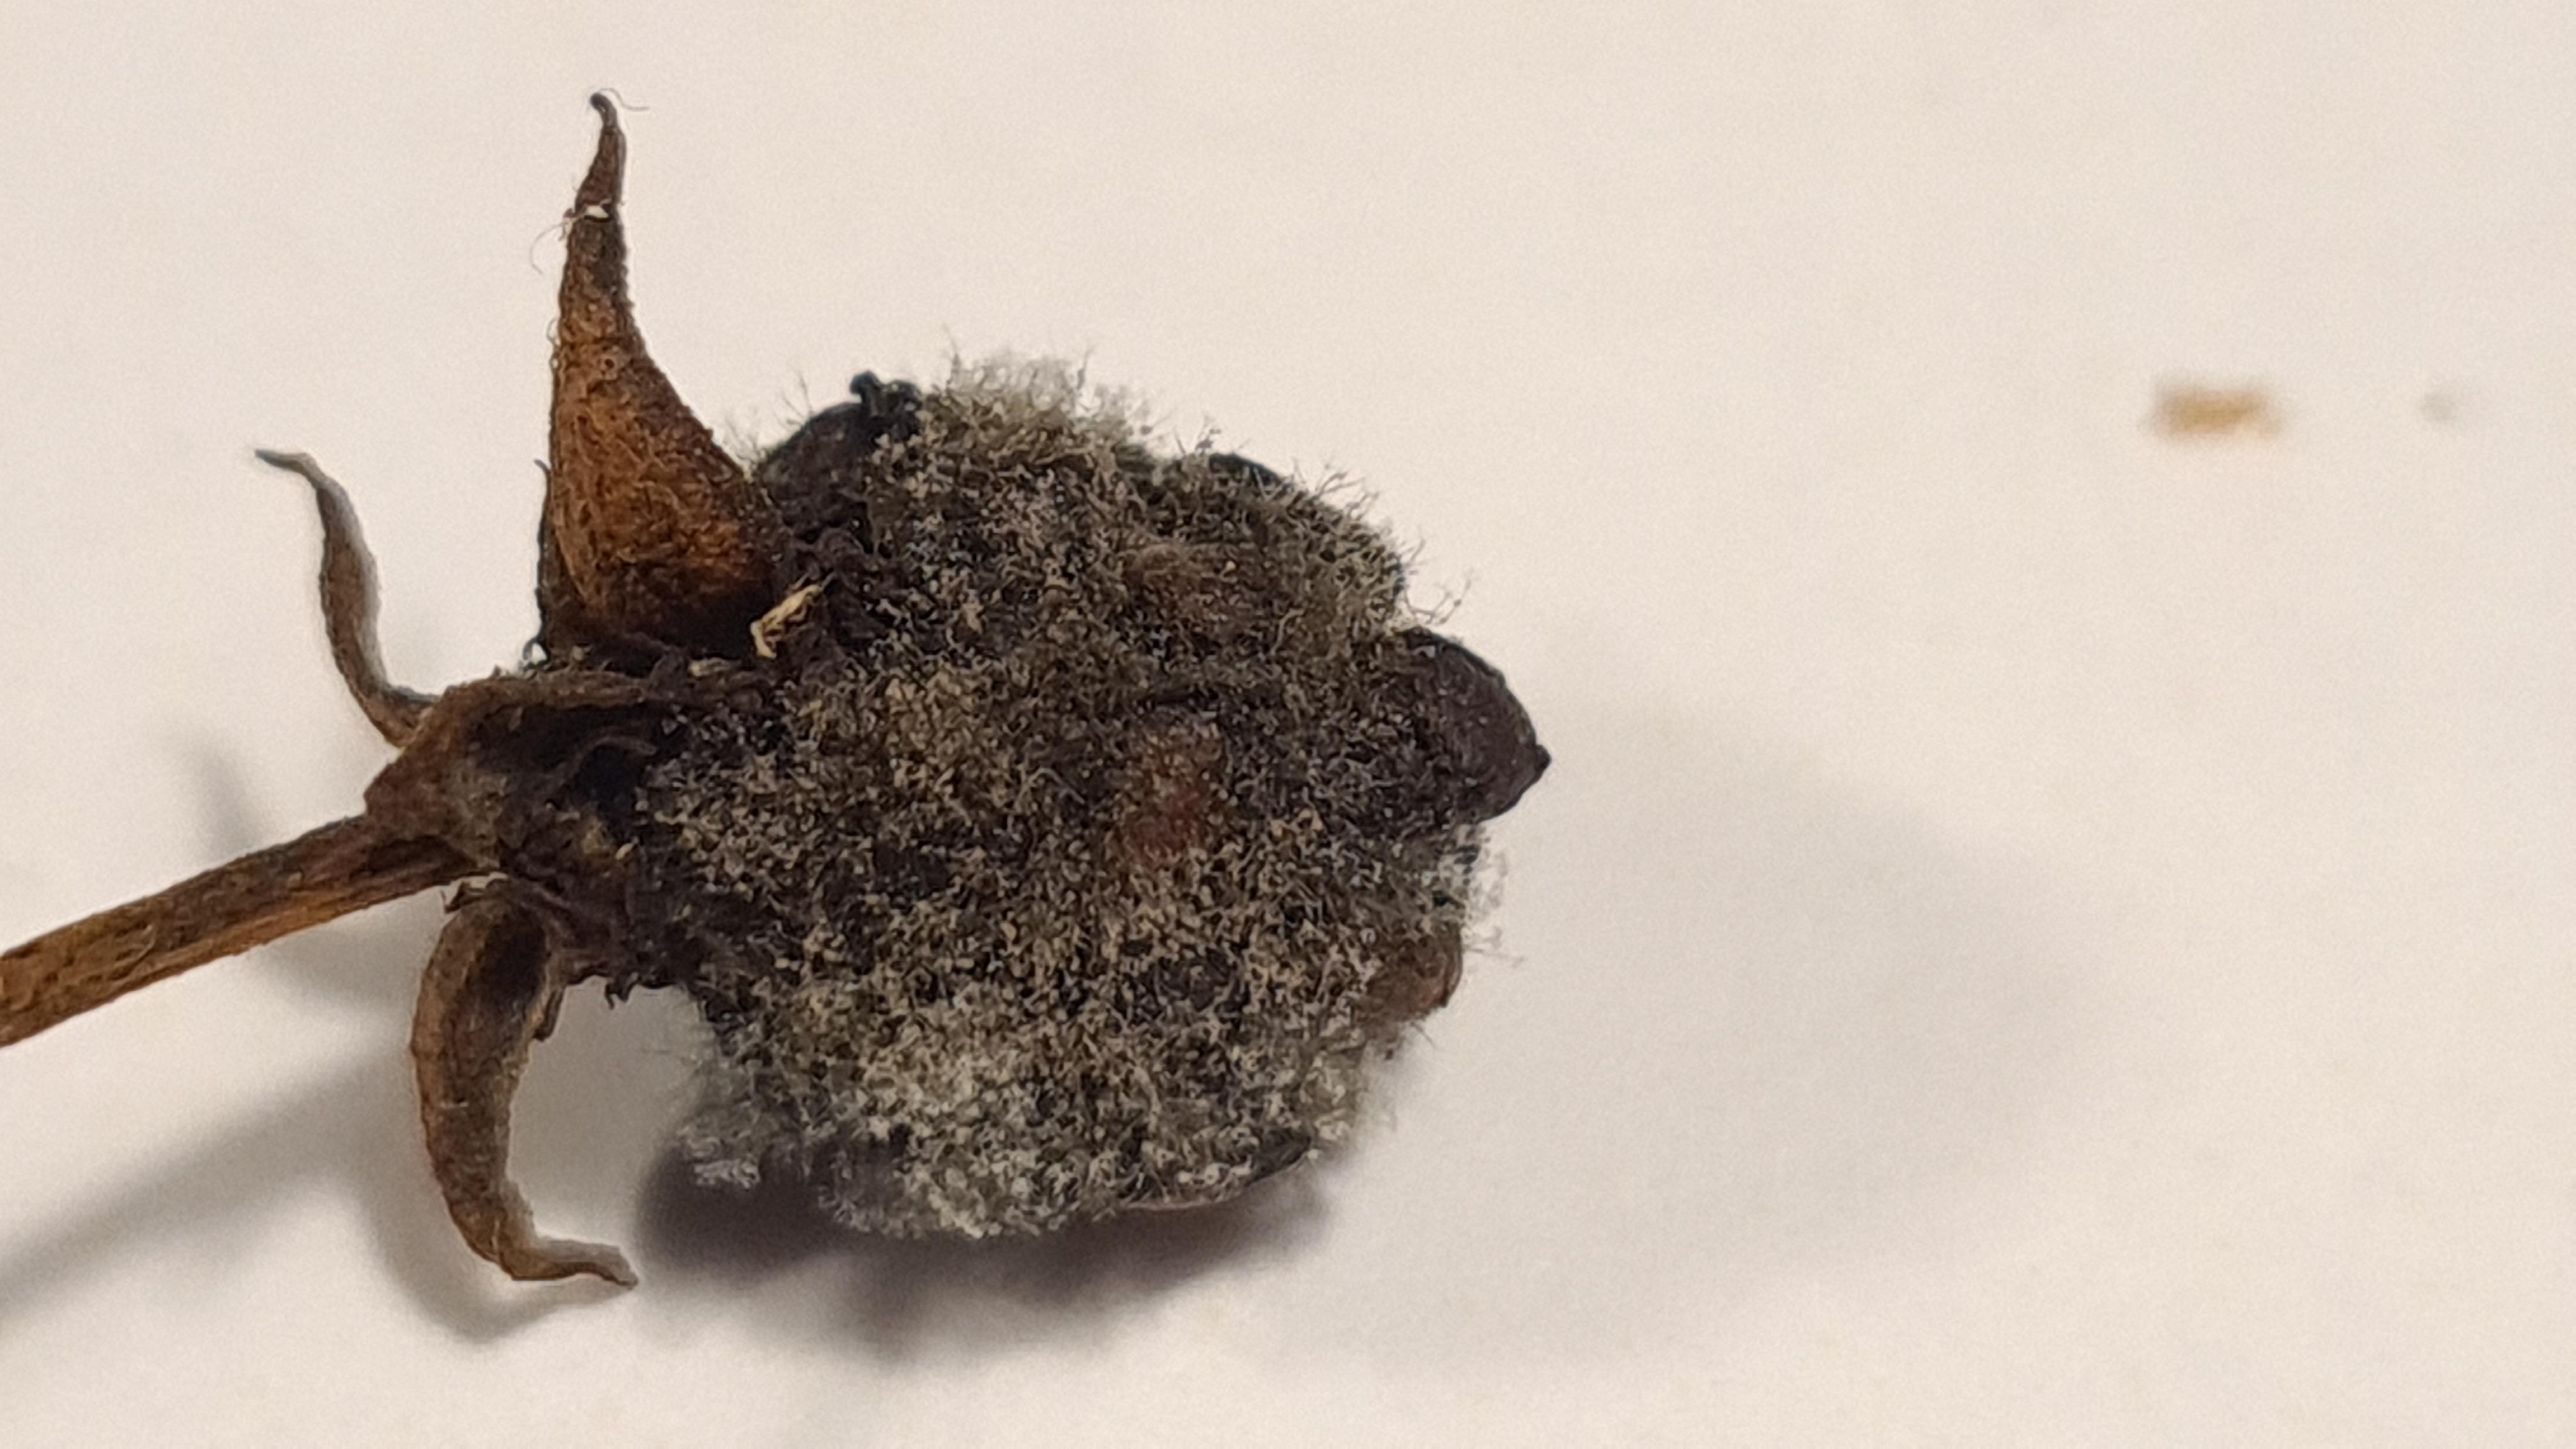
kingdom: Fungi
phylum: Ascomycota
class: Leotiomycetes
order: Helotiales
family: Sclerotiniaceae
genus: Botrytis
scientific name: Botrytis cinerea
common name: Grey mould
